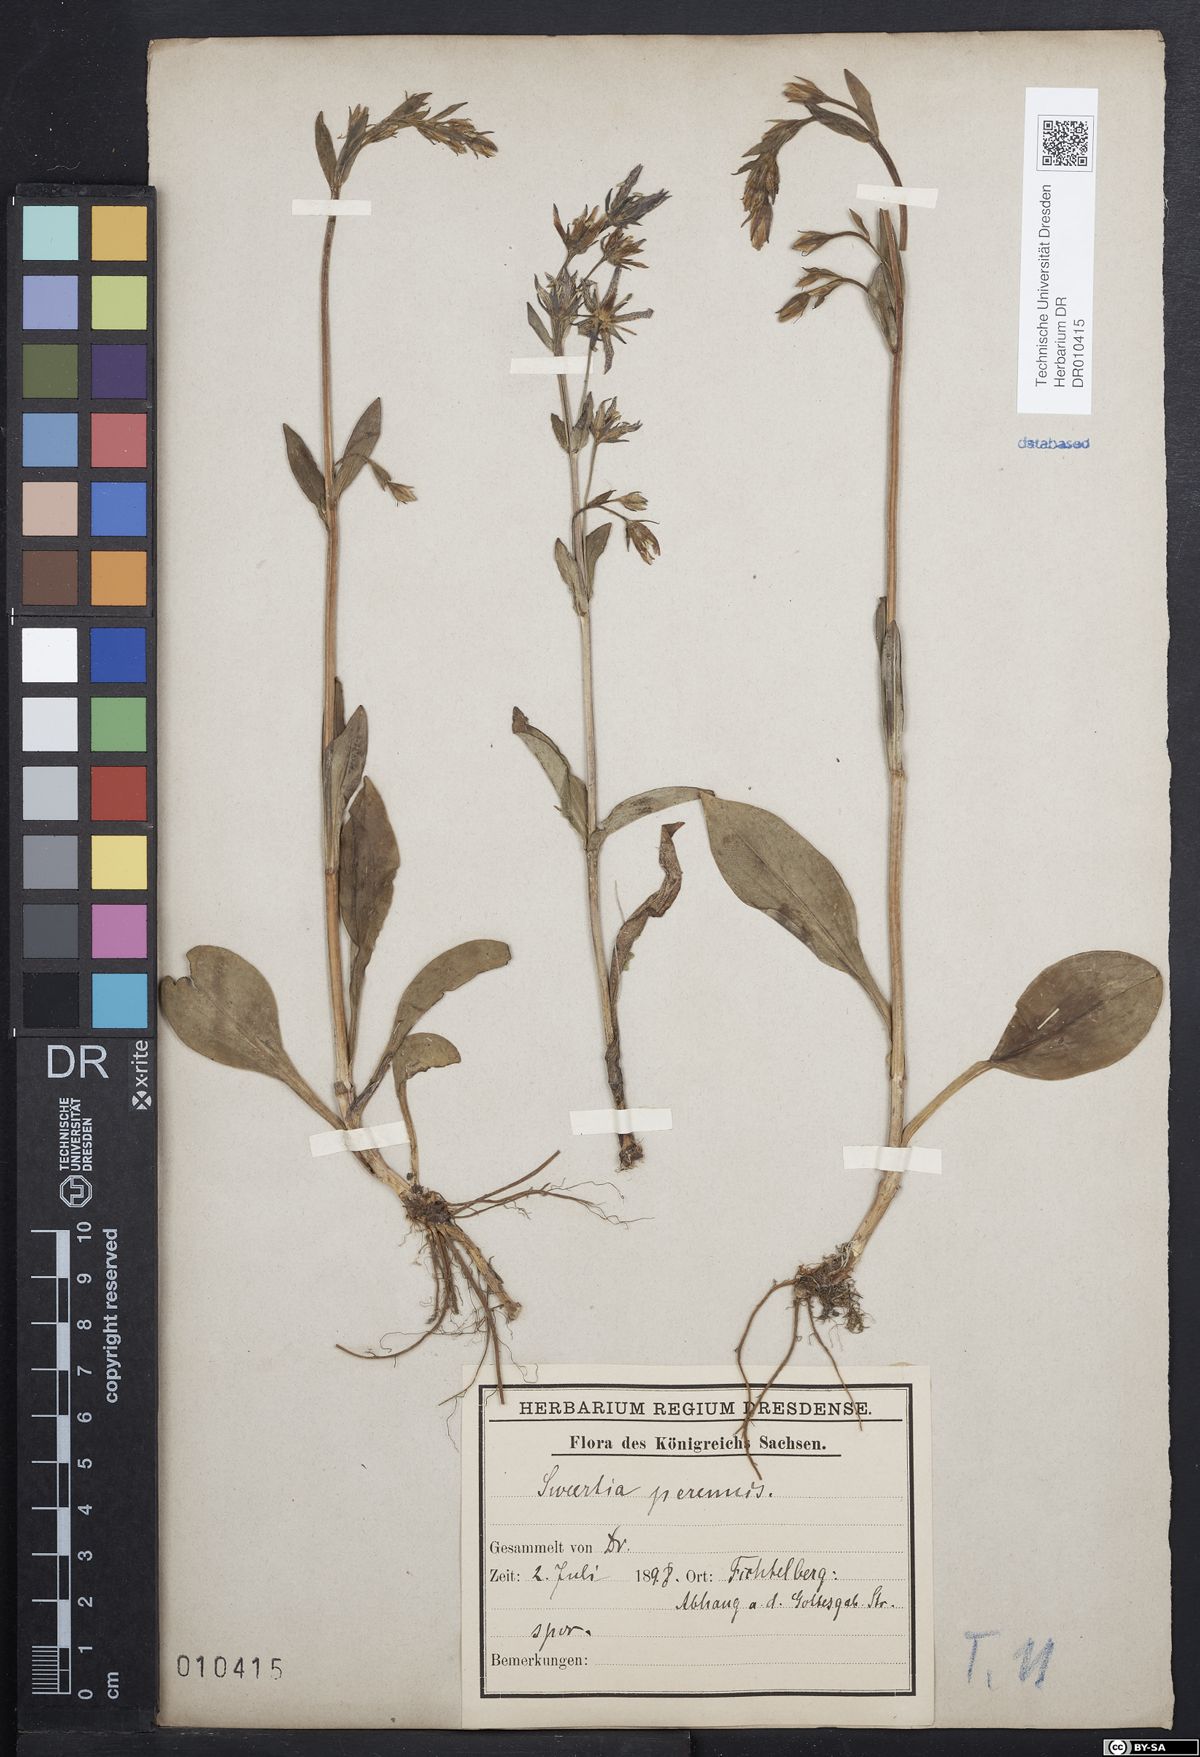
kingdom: Plantae
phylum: Tracheophyta
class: Magnoliopsida
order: Gentianales
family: Gentianaceae
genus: Swertia
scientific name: Swertia perennis
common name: Alpine bog swertia
